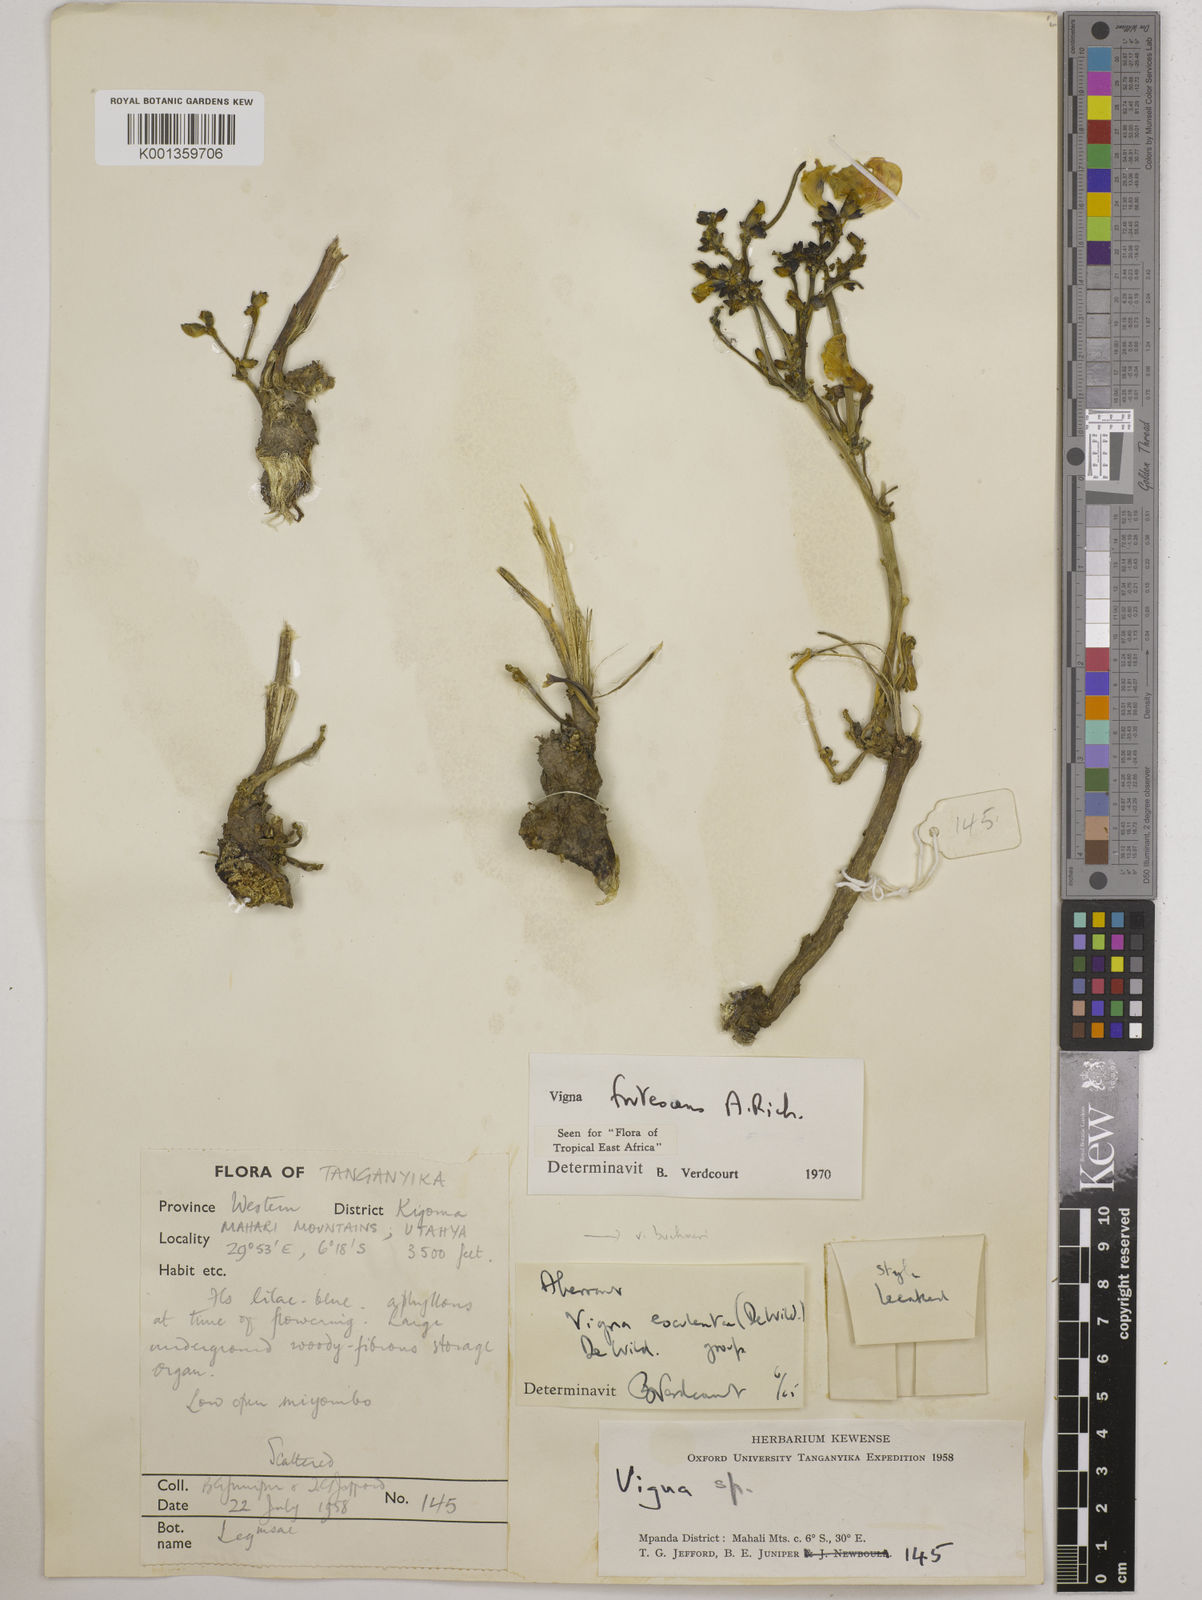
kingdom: Plantae
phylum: Tracheophyta
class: Magnoliopsida
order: Fabales
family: Fabaceae
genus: Vigna
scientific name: Vigna frutescens
